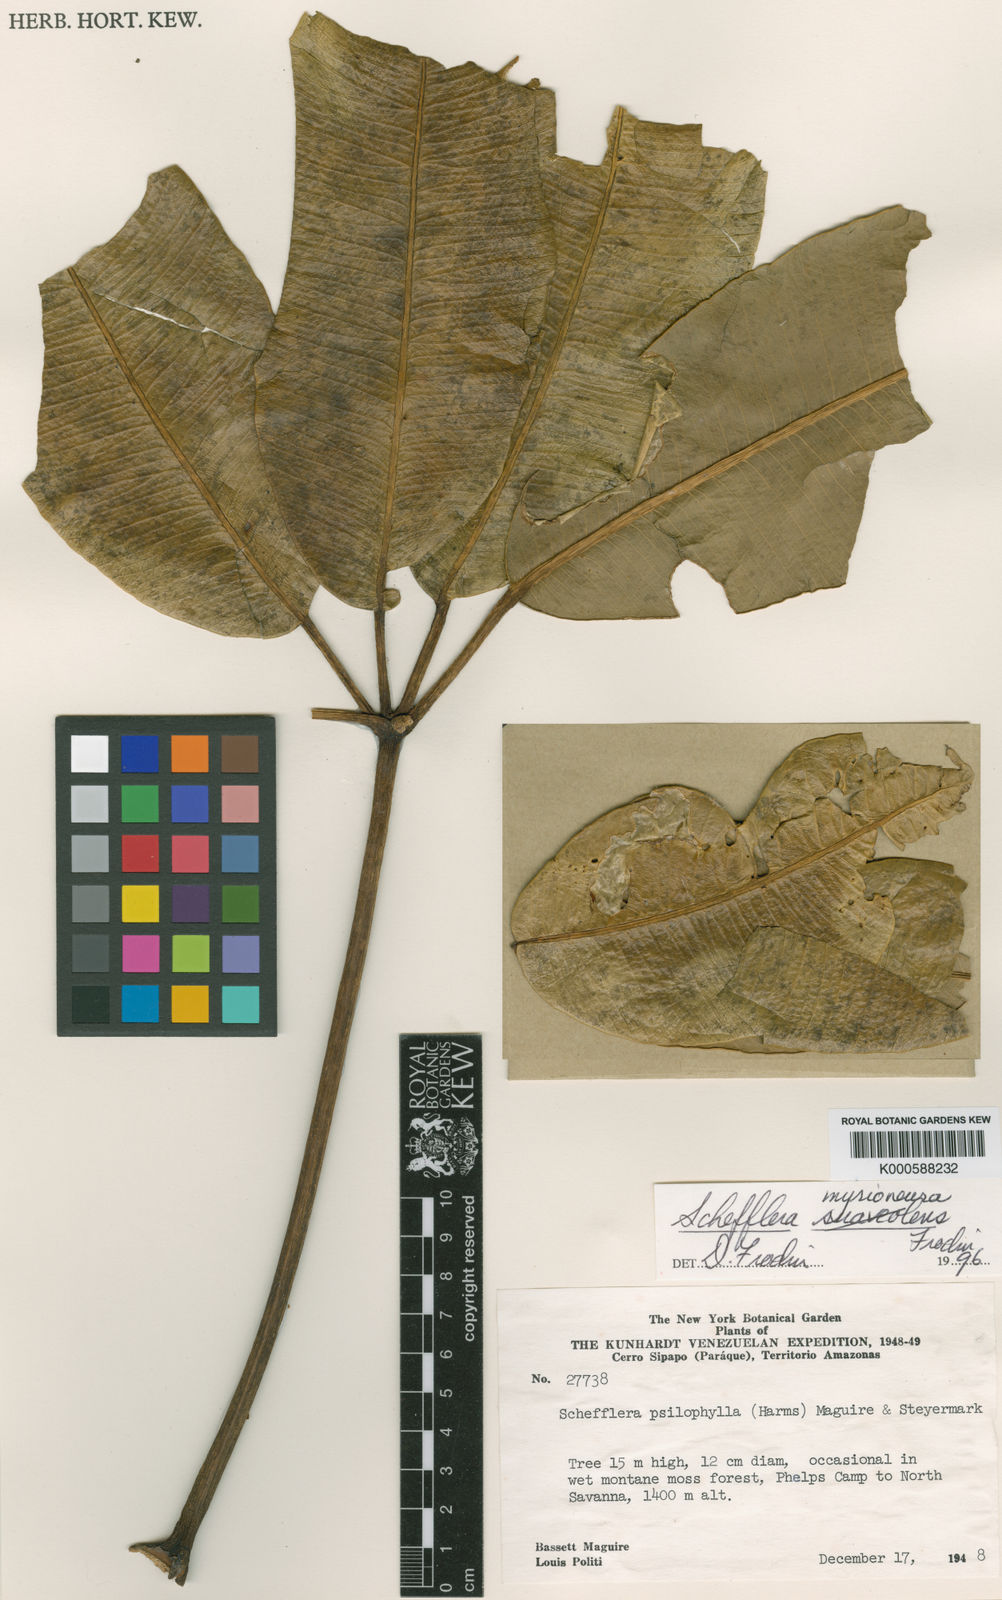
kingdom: Plantae
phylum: Tracheophyta
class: Magnoliopsida
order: Apiales
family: Araliaceae
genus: Crepinella
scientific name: Crepinella
